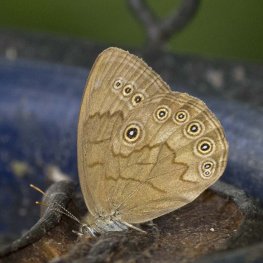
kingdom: Animalia
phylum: Arthropoda
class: Insecta
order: Lepidoptera
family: Nymphalidae
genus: Lethe
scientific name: Lethe eurydice
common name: Eyed Brown
